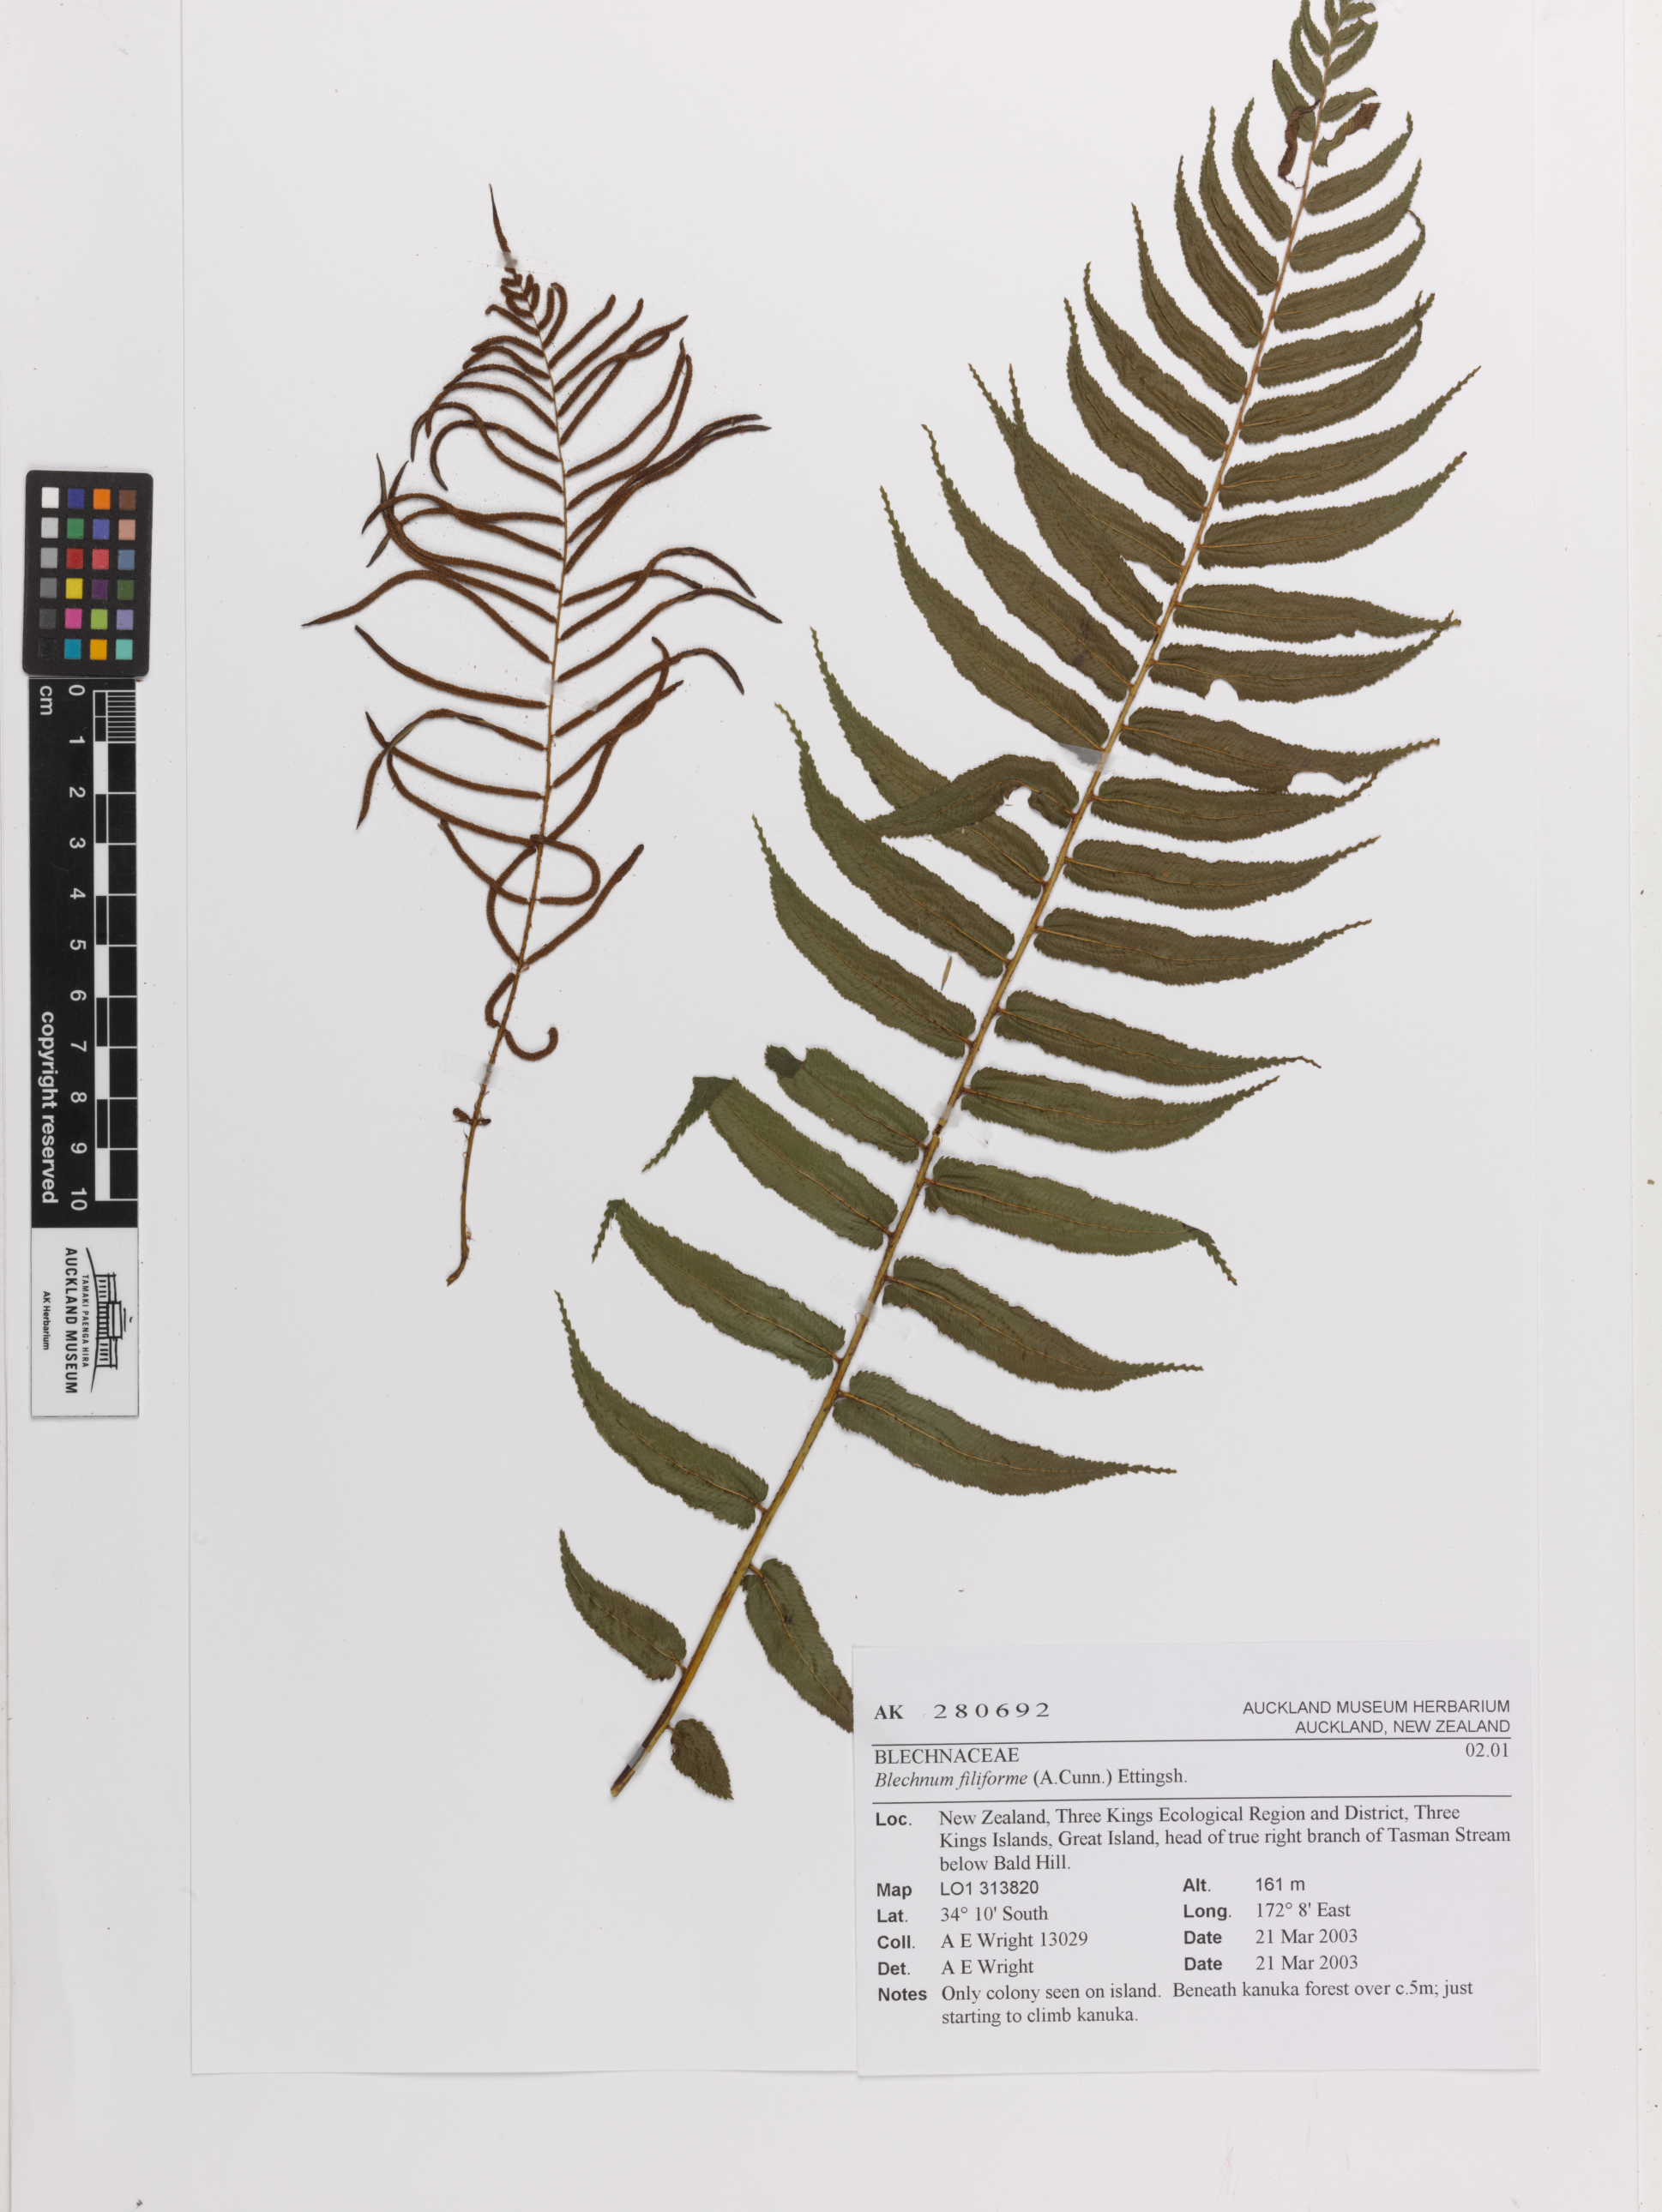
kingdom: Plantae
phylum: Tracheophyta
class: Polypodiopsida
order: Polypodiales
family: Blechnaceae
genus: Icarus
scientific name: Icarus filiformis
